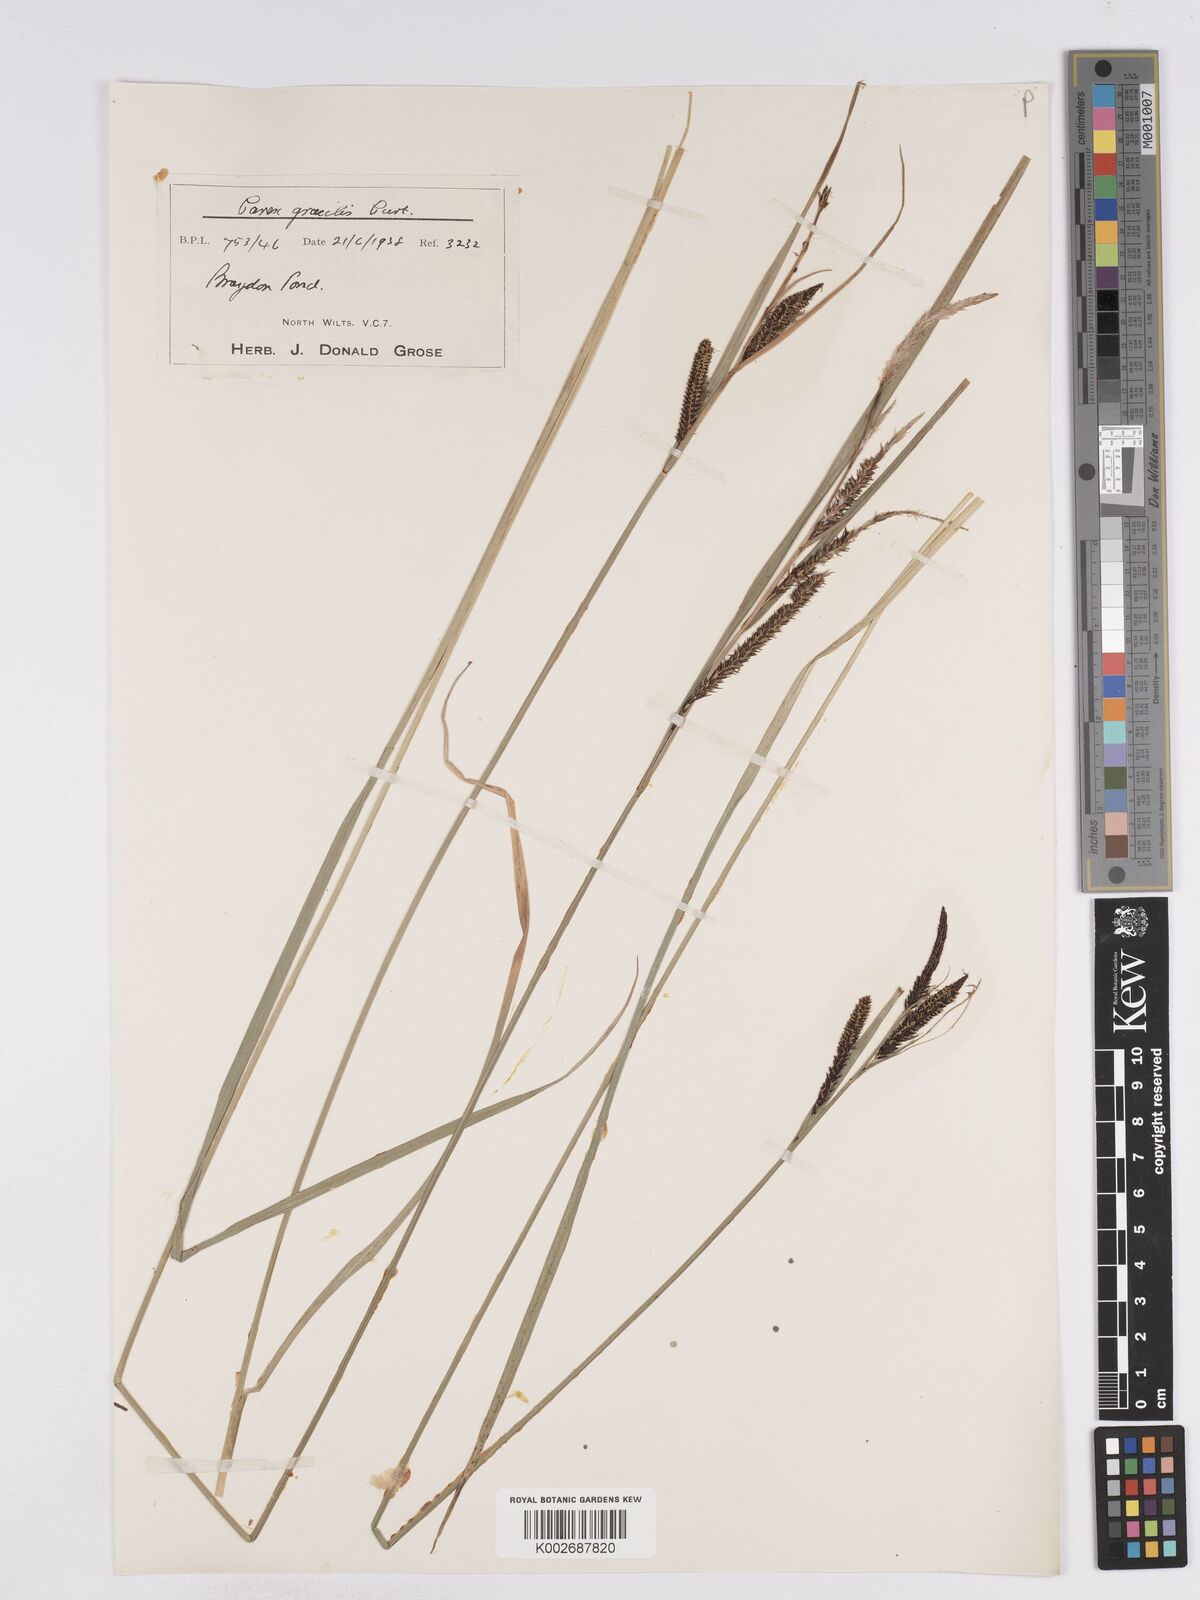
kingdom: Plantae
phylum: Tracheophyta
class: Liliopsida
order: Poales
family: Cyperaceae
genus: Carex
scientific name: Carex acuta
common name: Slender tufted-sedge
